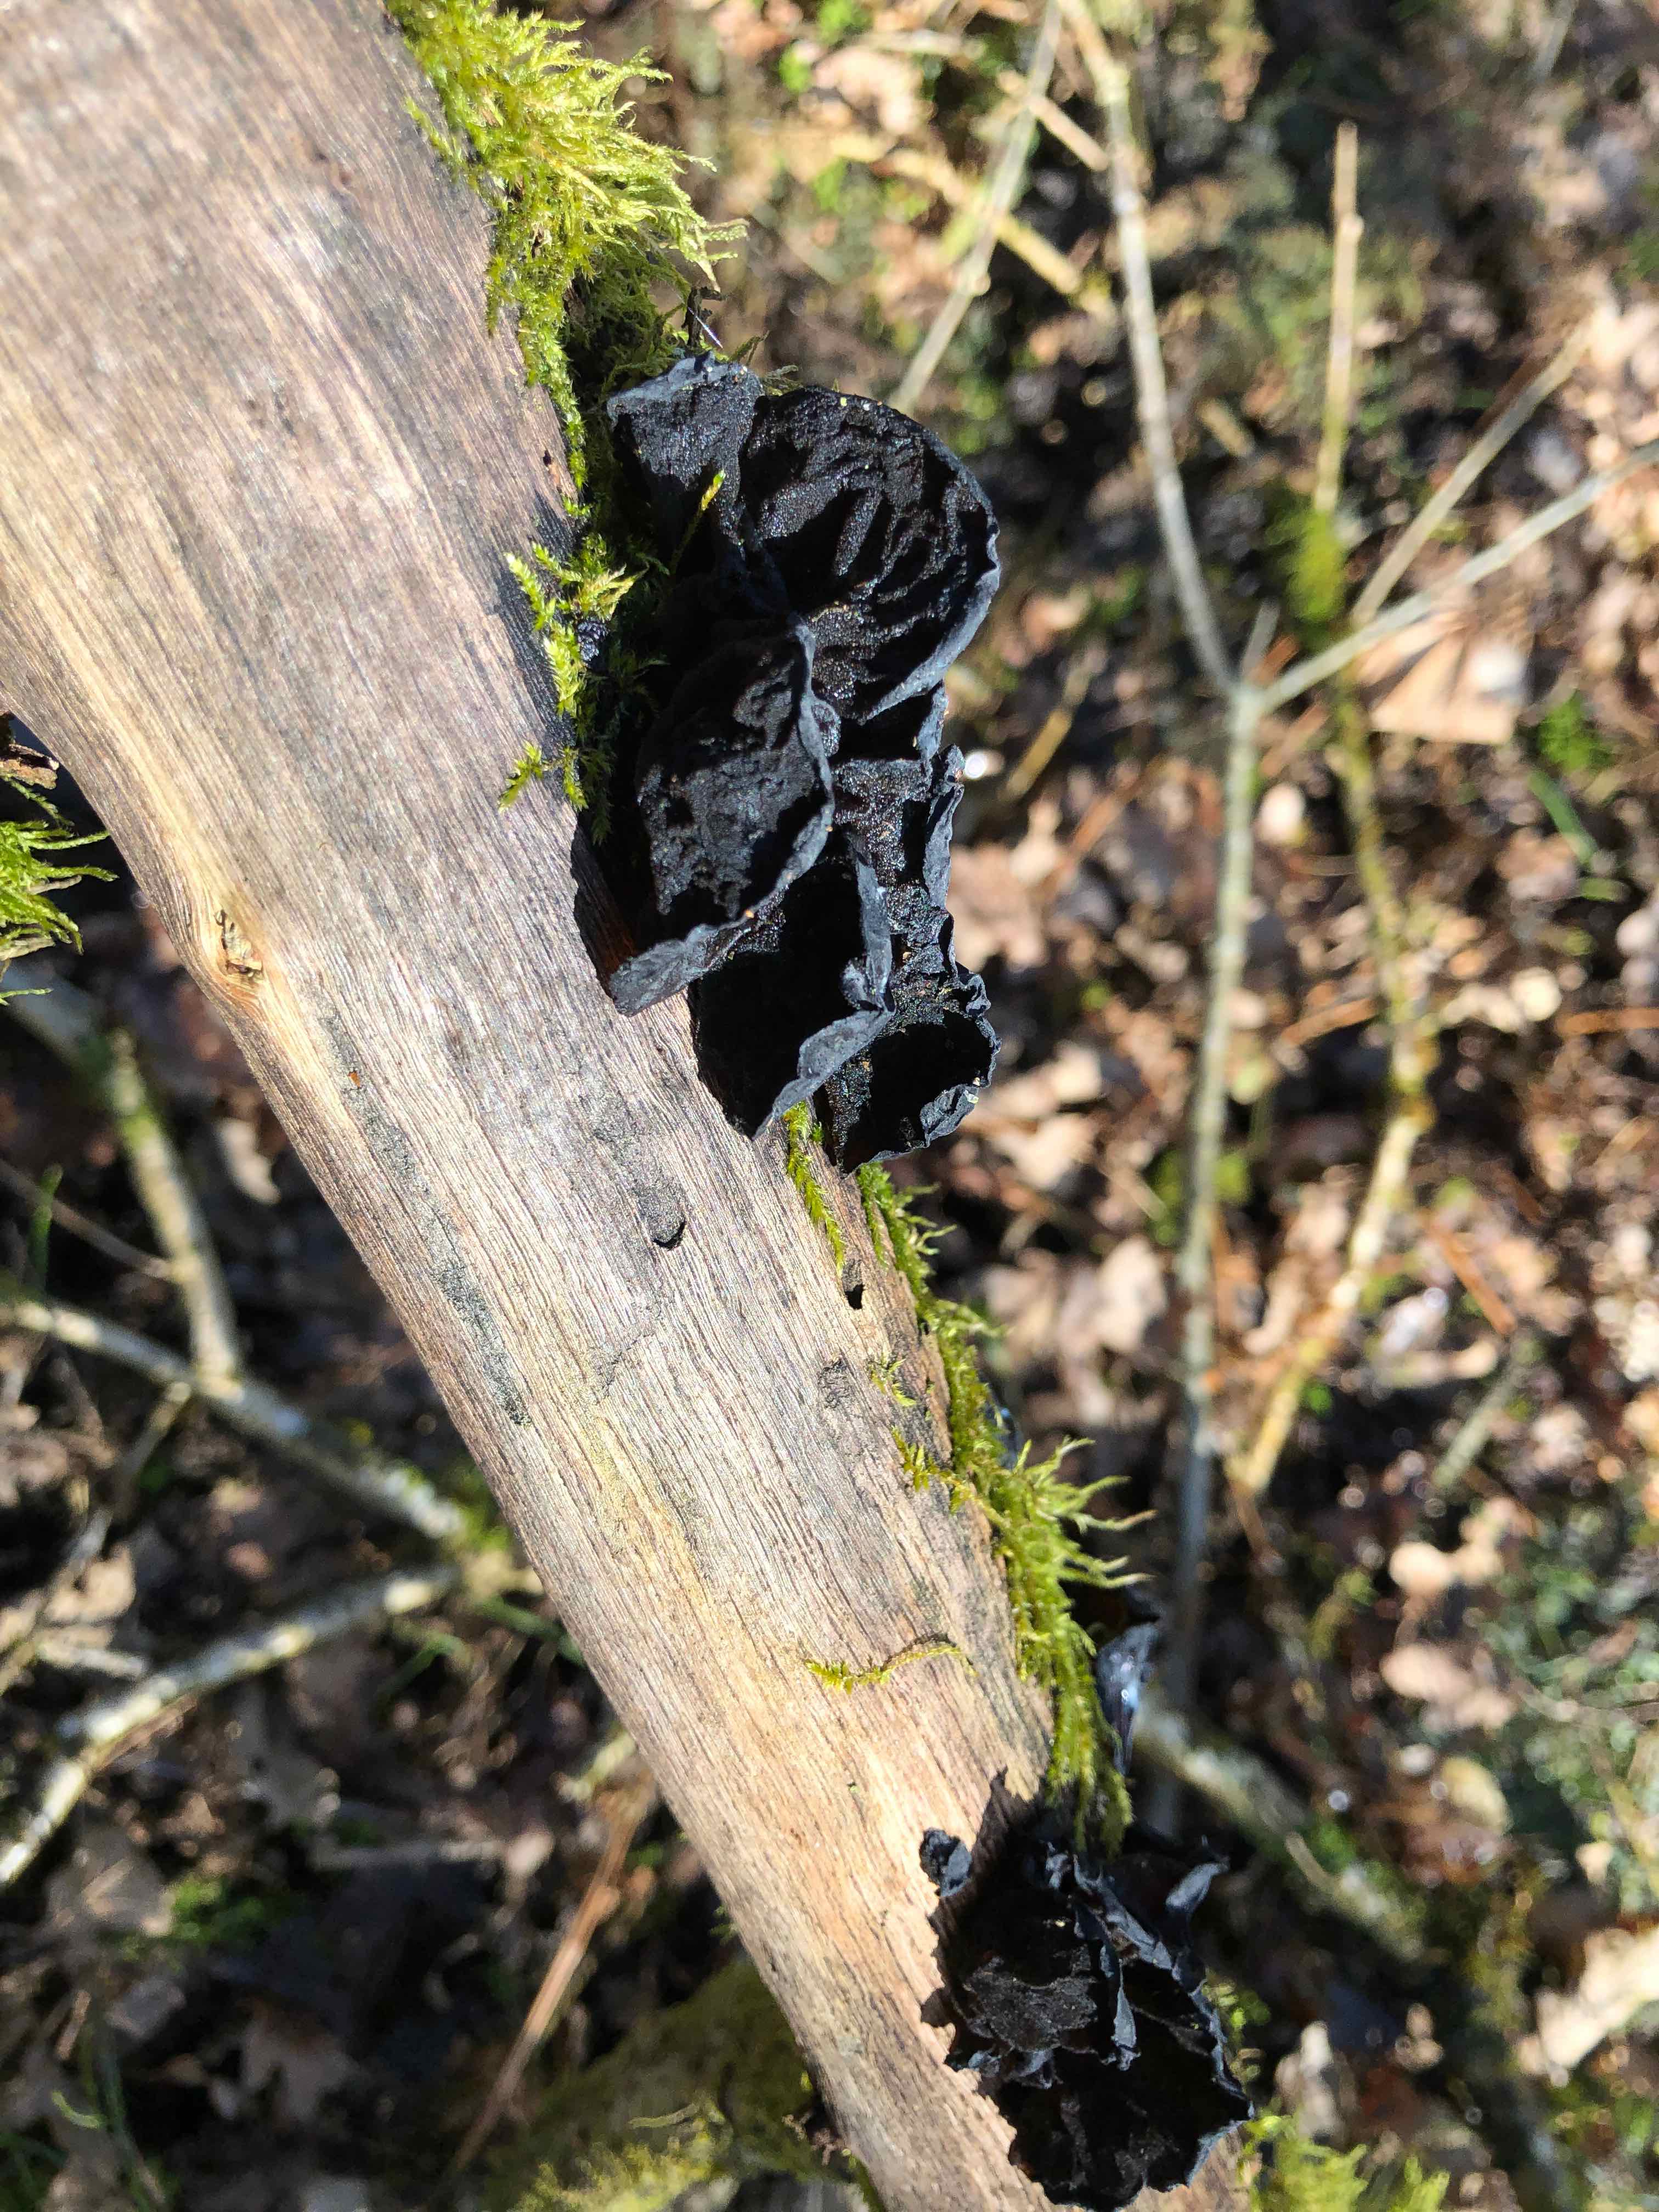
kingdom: Fungi
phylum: Basidiomycota
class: Agaricomycetes
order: Auriculariales
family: Auriculariaceae
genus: Exidia
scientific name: Exidia glandulosa
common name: ege-bævretop
